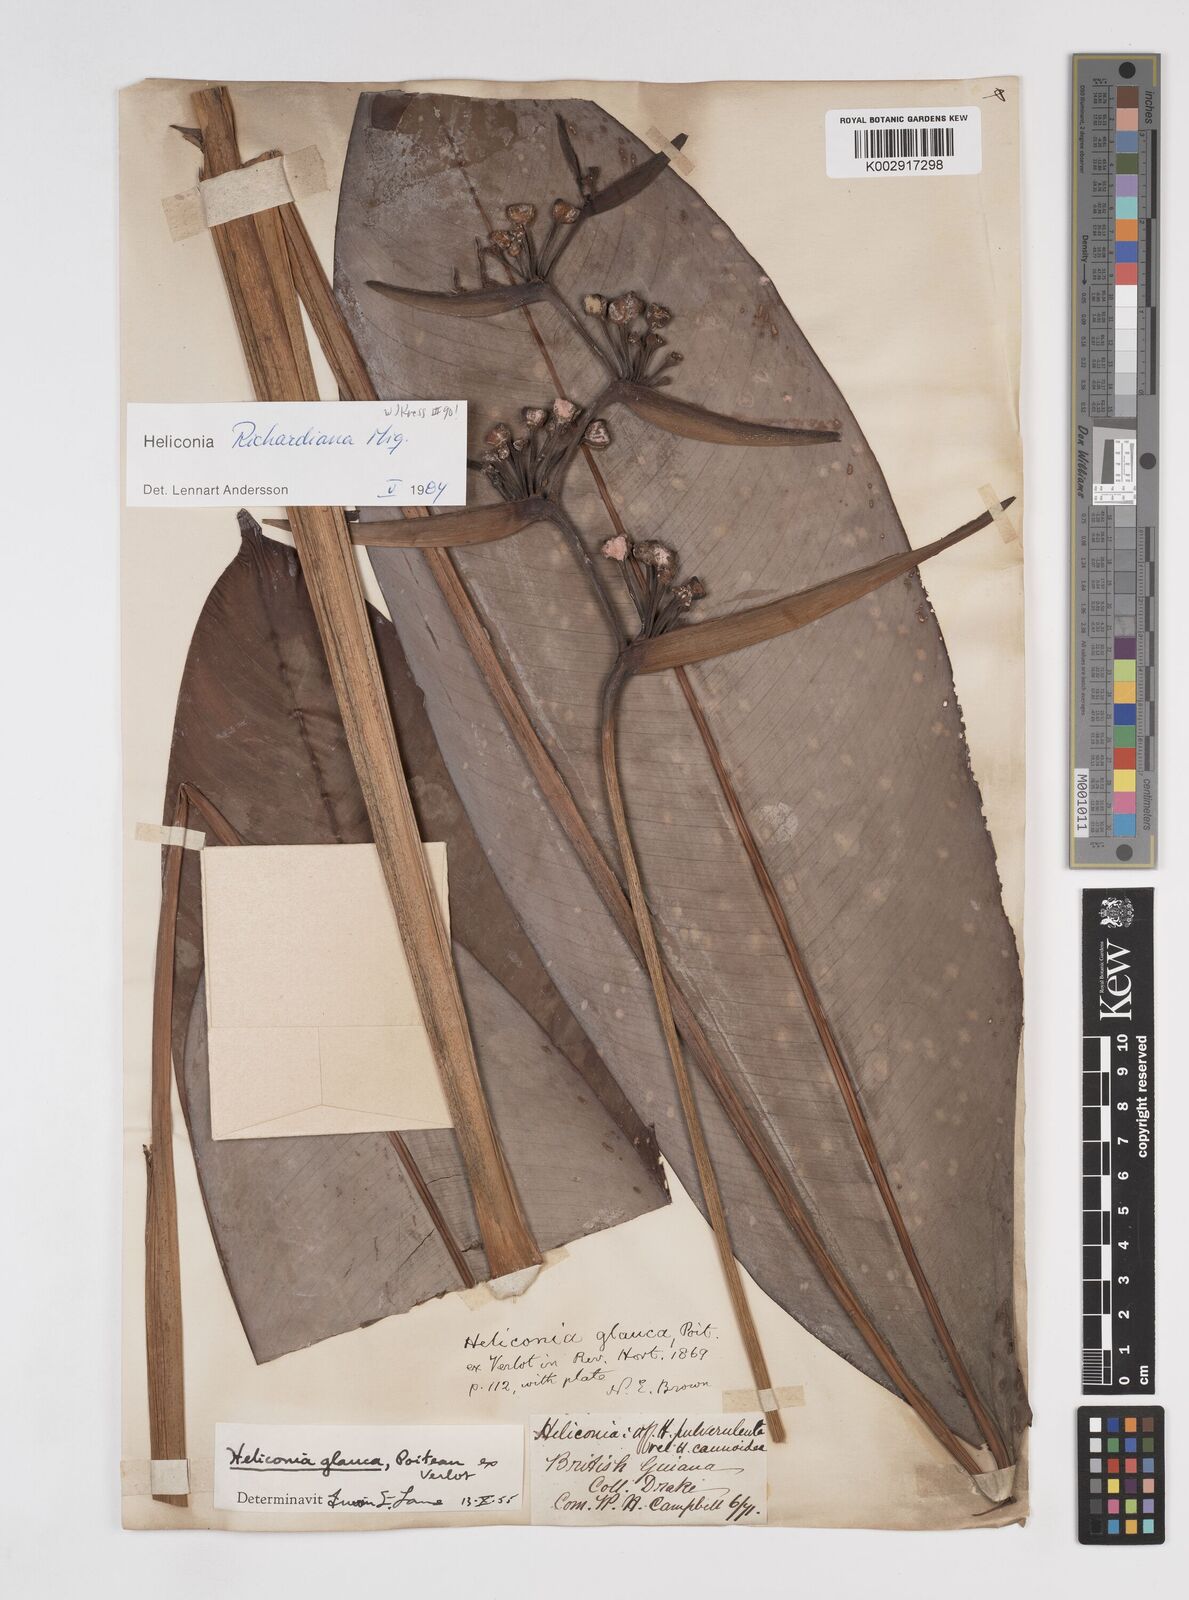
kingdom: Plantae
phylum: Tracheophyta
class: Liliopsida
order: Zingiberales
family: Heliconiaceae
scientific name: Heliconiaceae
